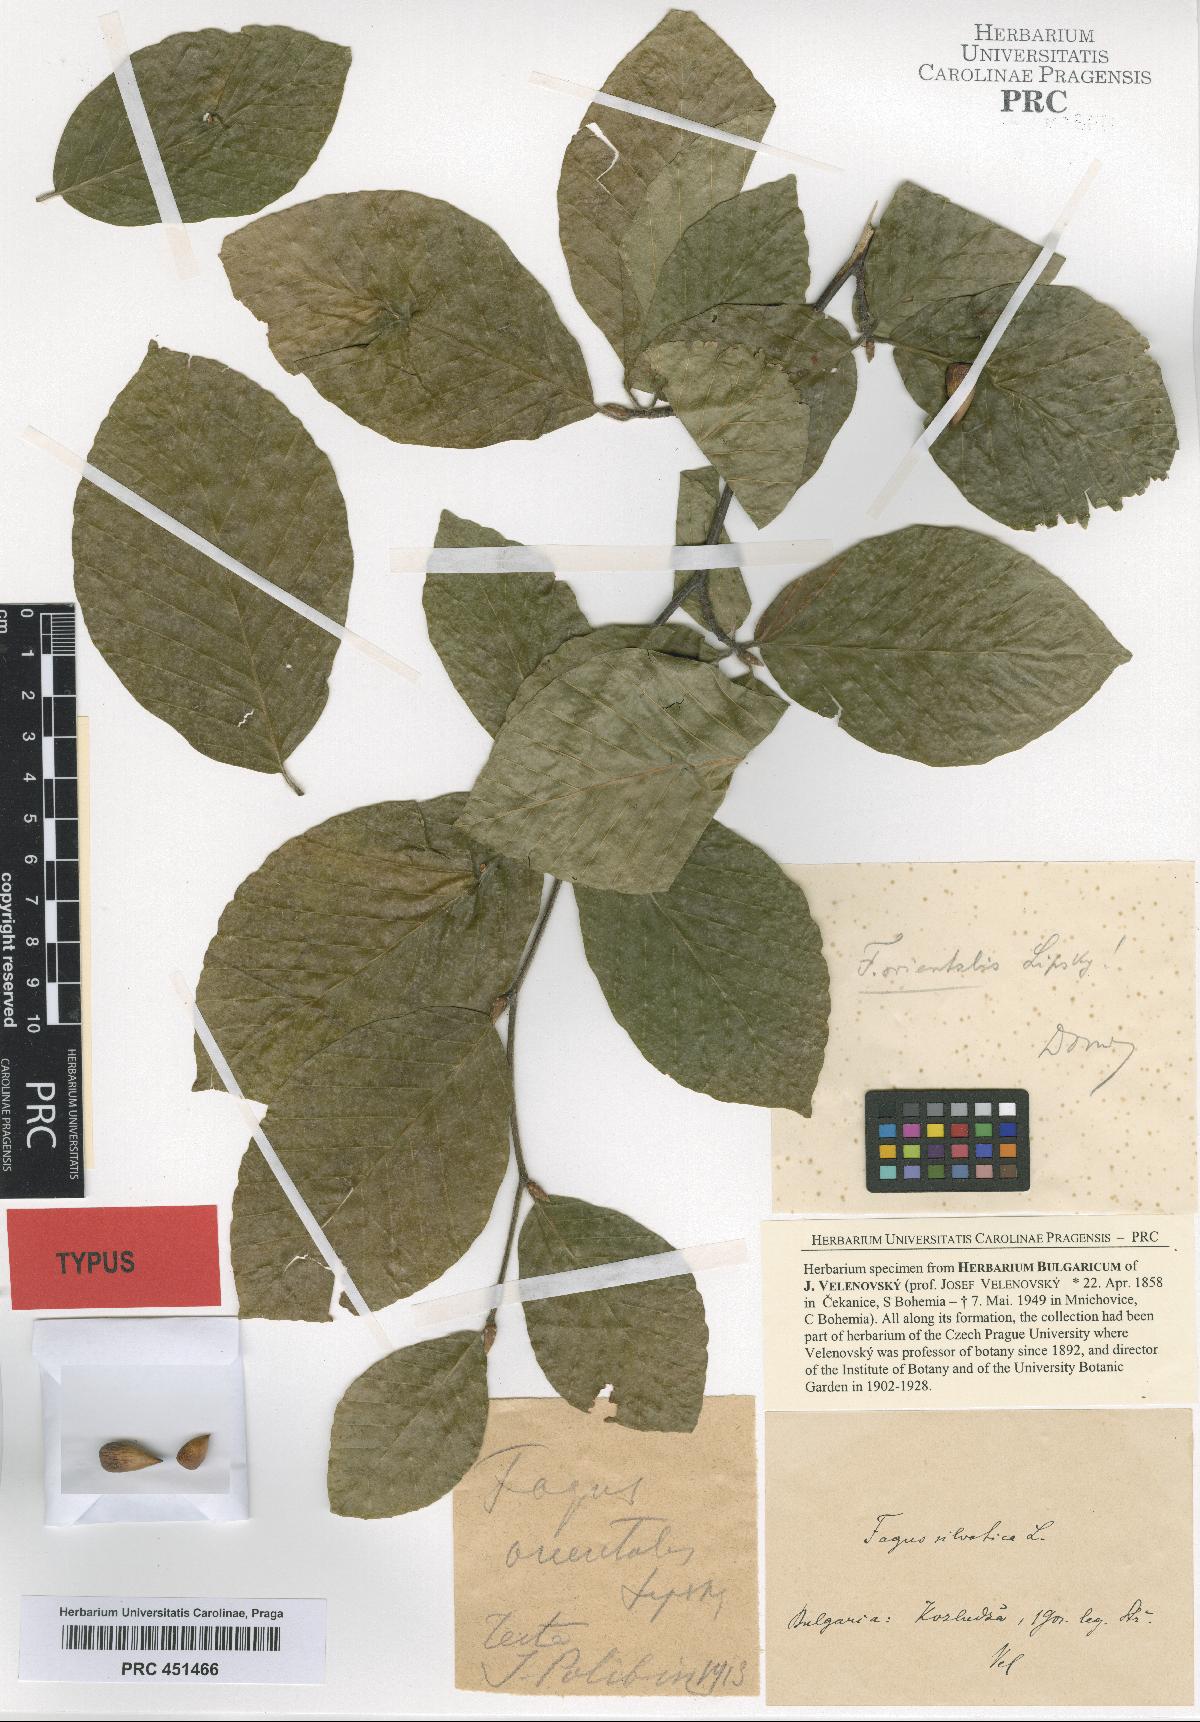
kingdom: Plantae
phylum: Tracheophyta
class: Magnoliopsida
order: Fagales
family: Fagaceae
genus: Fagus
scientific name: Fagus orientalis
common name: Oriental beech
